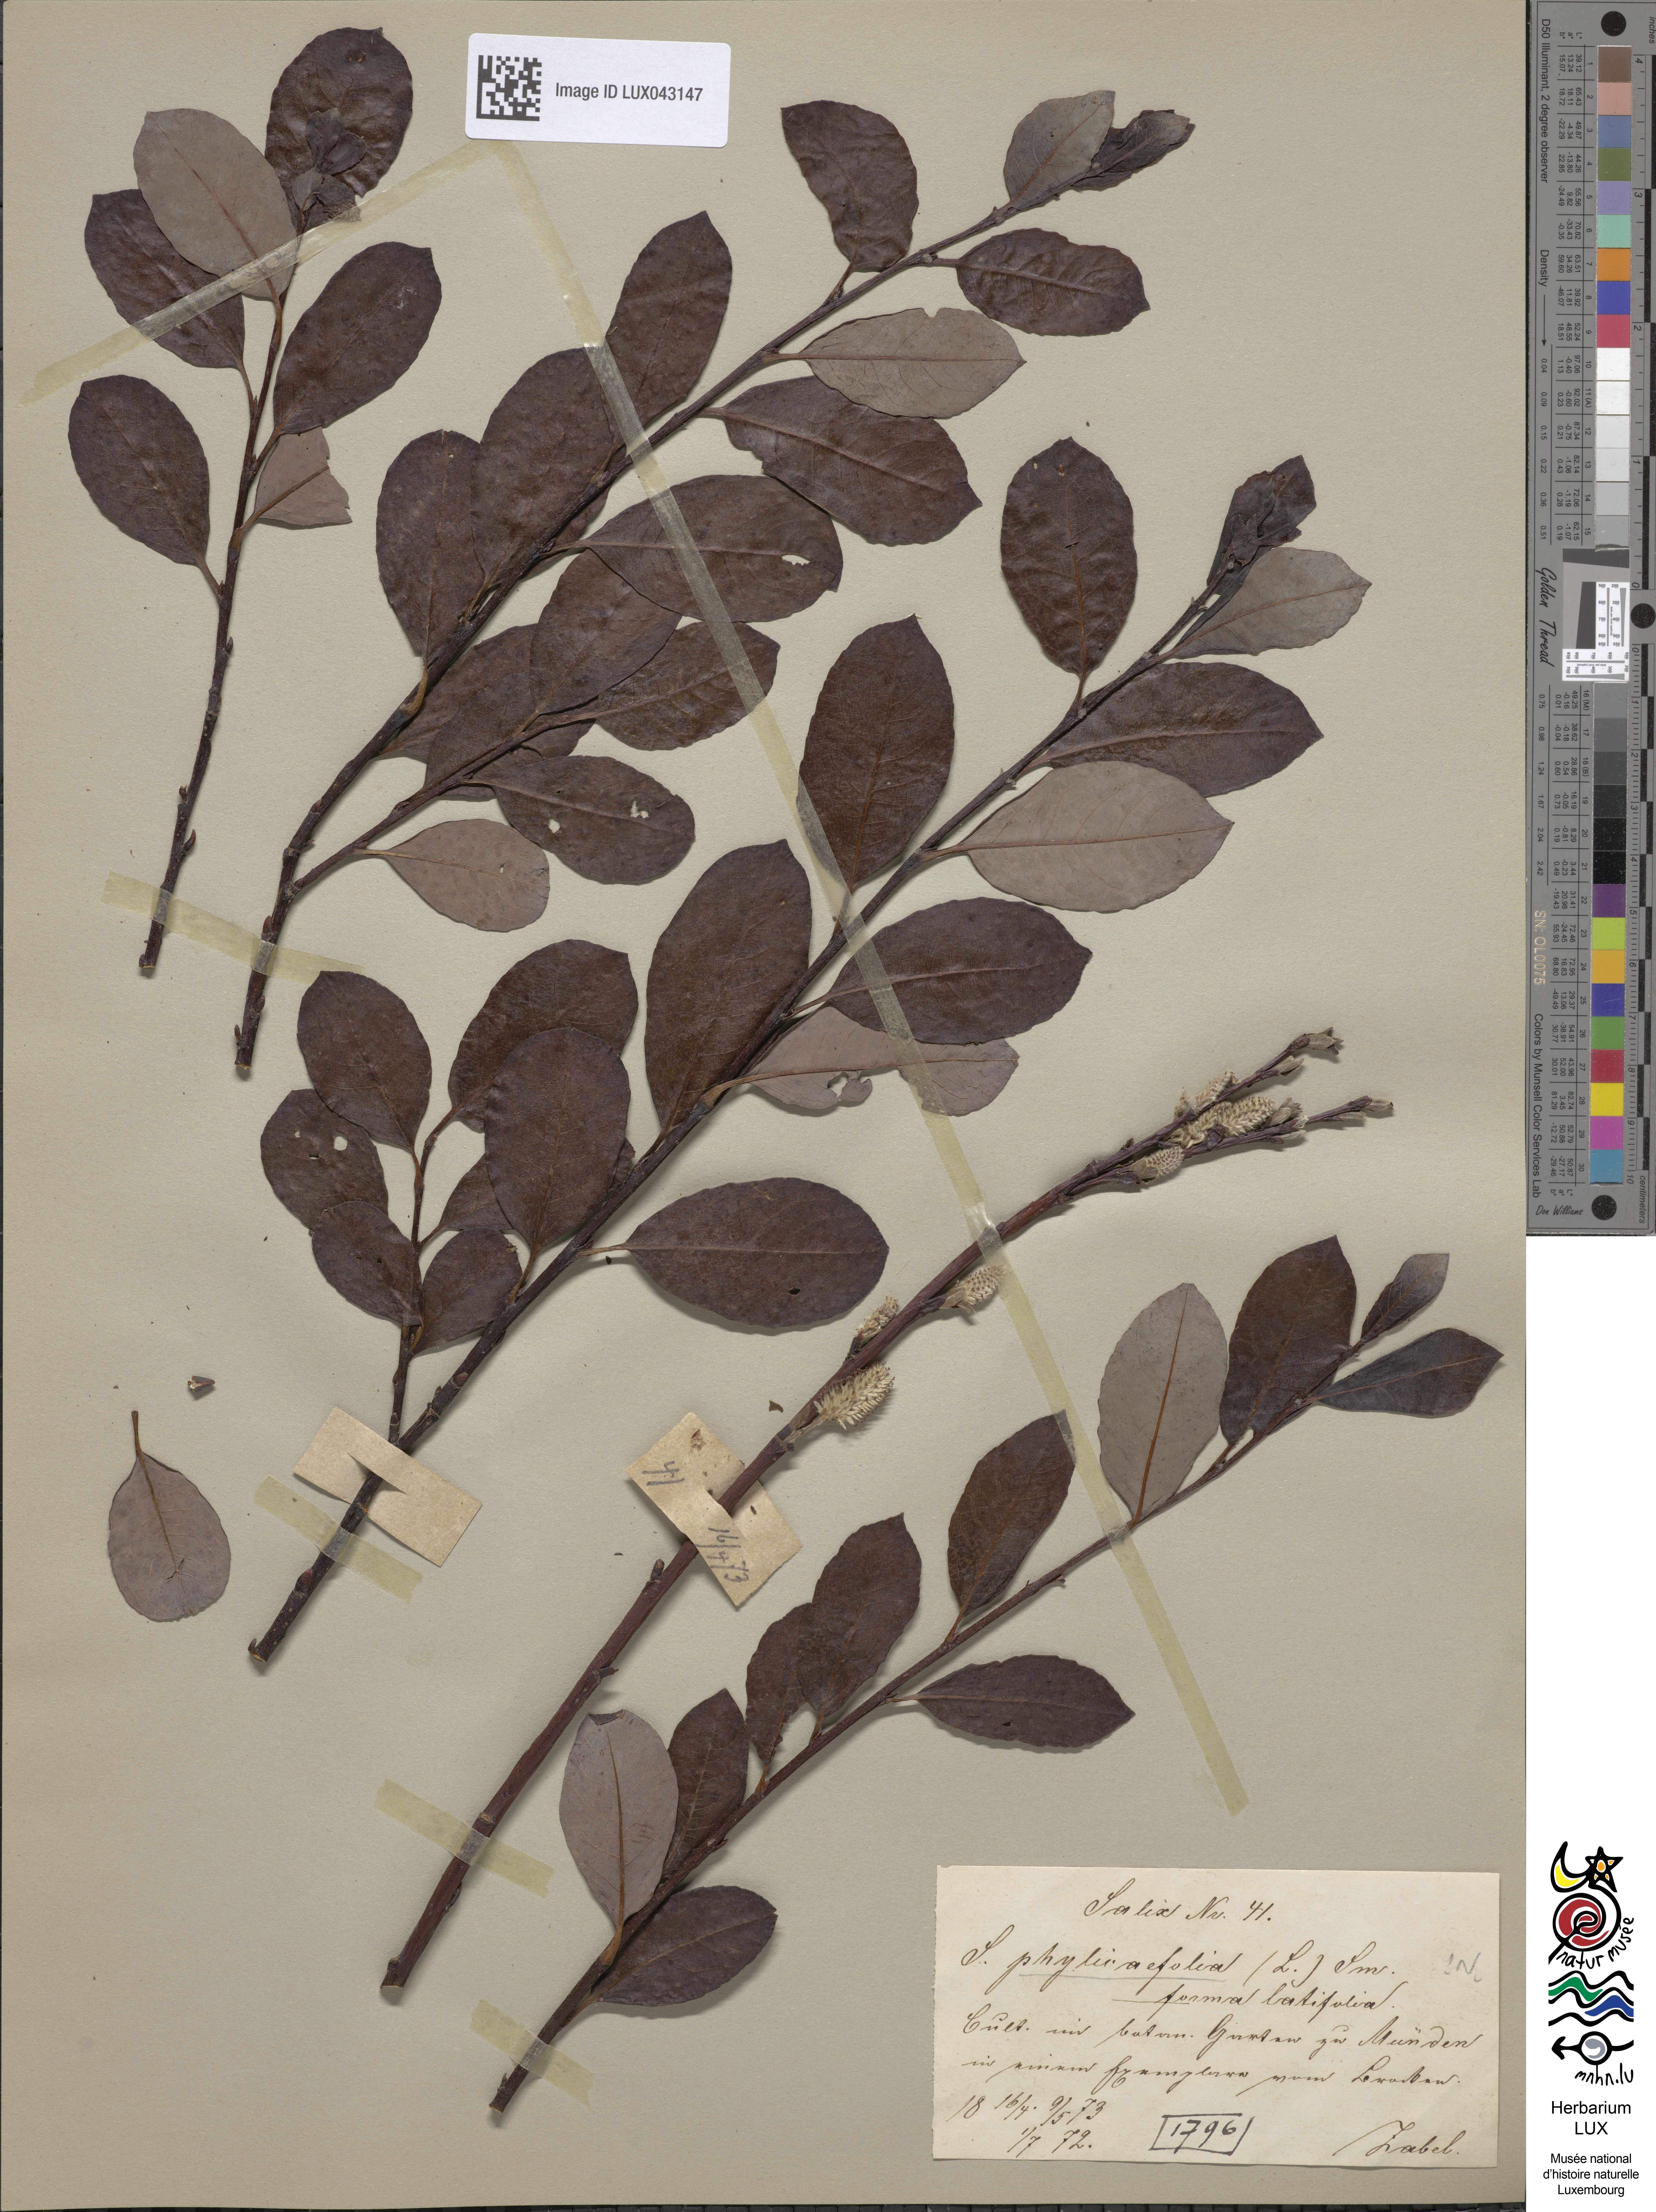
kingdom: Plantae
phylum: Tracheophyta
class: Magnoliopsida
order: Malpighiales
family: Salicaceae
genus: Salix
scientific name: Salix bicolor
